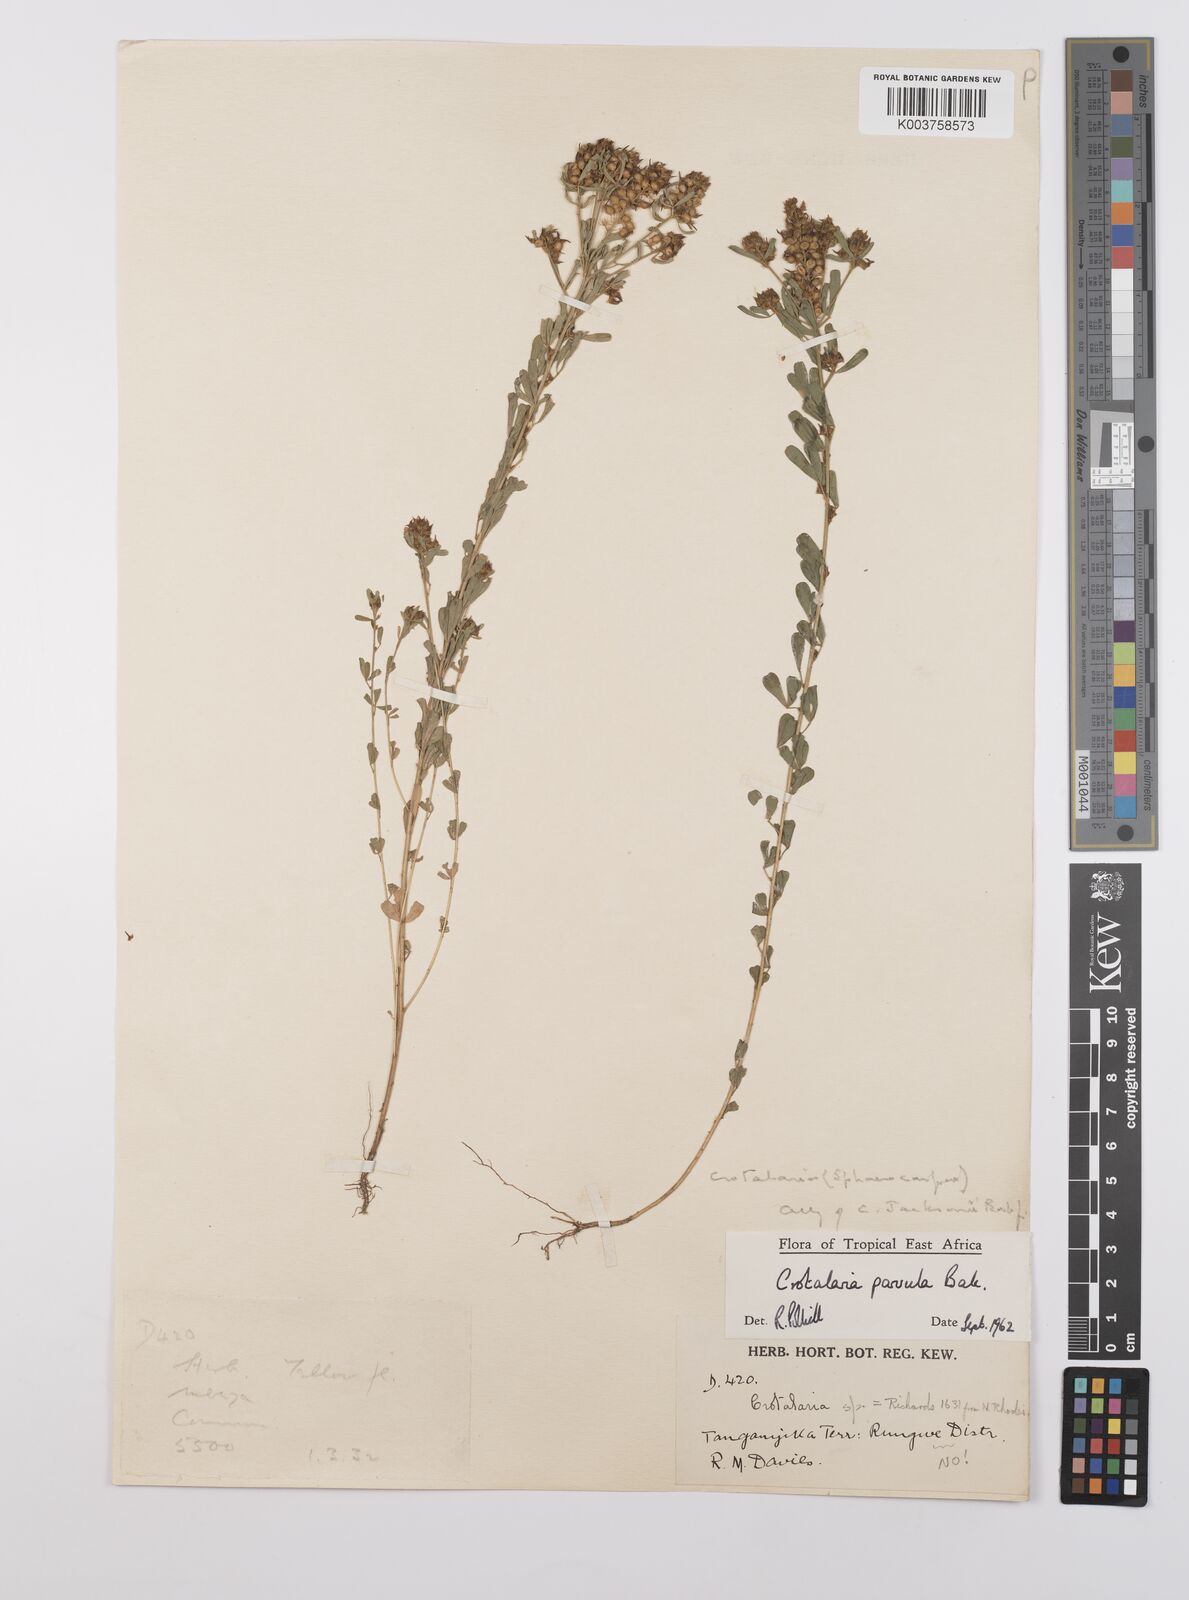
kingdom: Plantae
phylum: Tracheophyta
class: Magnoliopsida
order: Fabales
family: Fabaceae
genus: Crotalaria
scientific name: Crotalaria parvula
